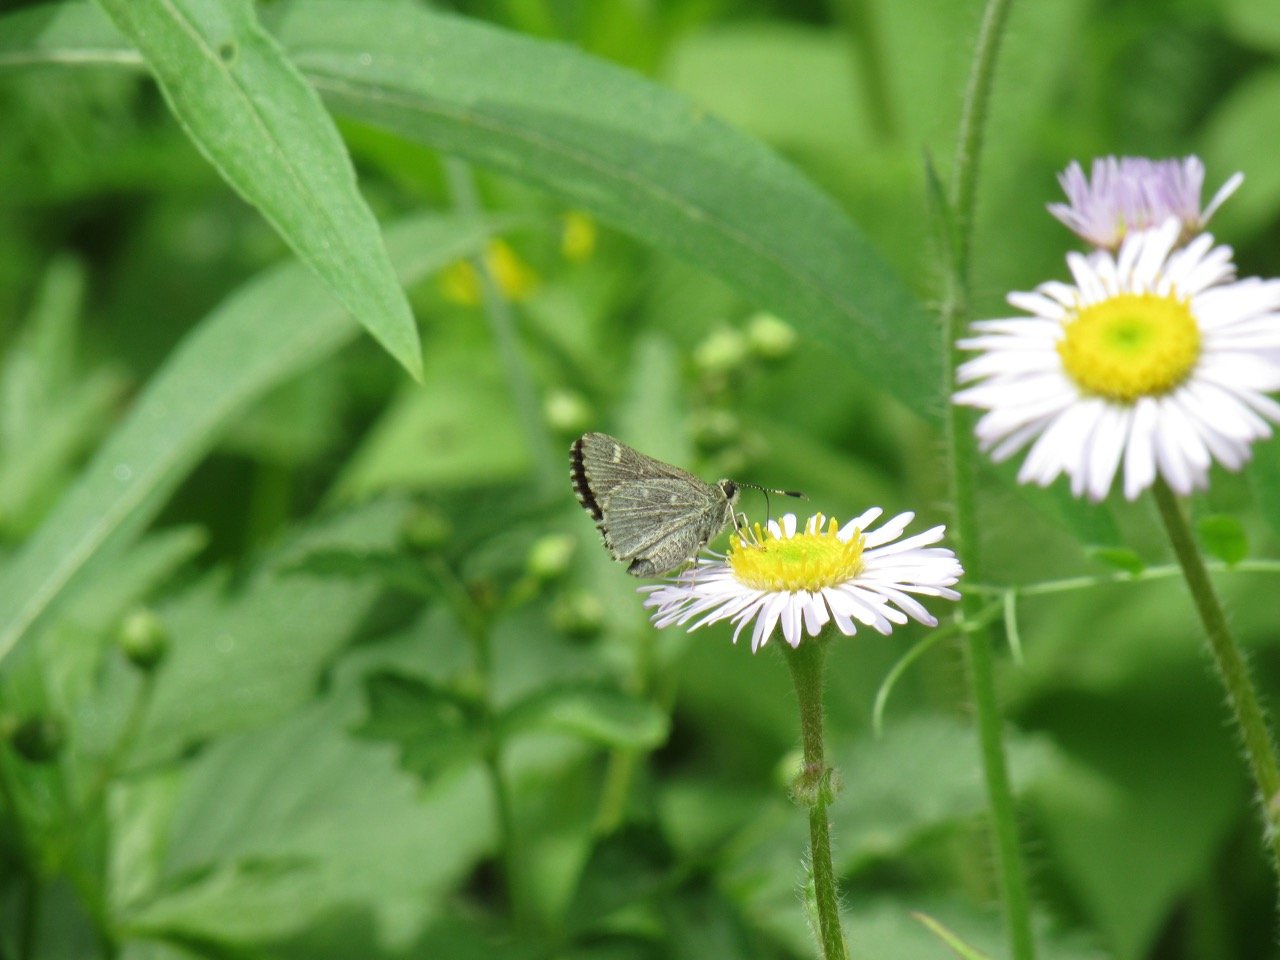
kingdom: Animalia
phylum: Arthropoda
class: Insecta
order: Lepidoptera
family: Hesperiidae
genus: Mastor
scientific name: Mastor hegon
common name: Pepper and Salt Skipper
